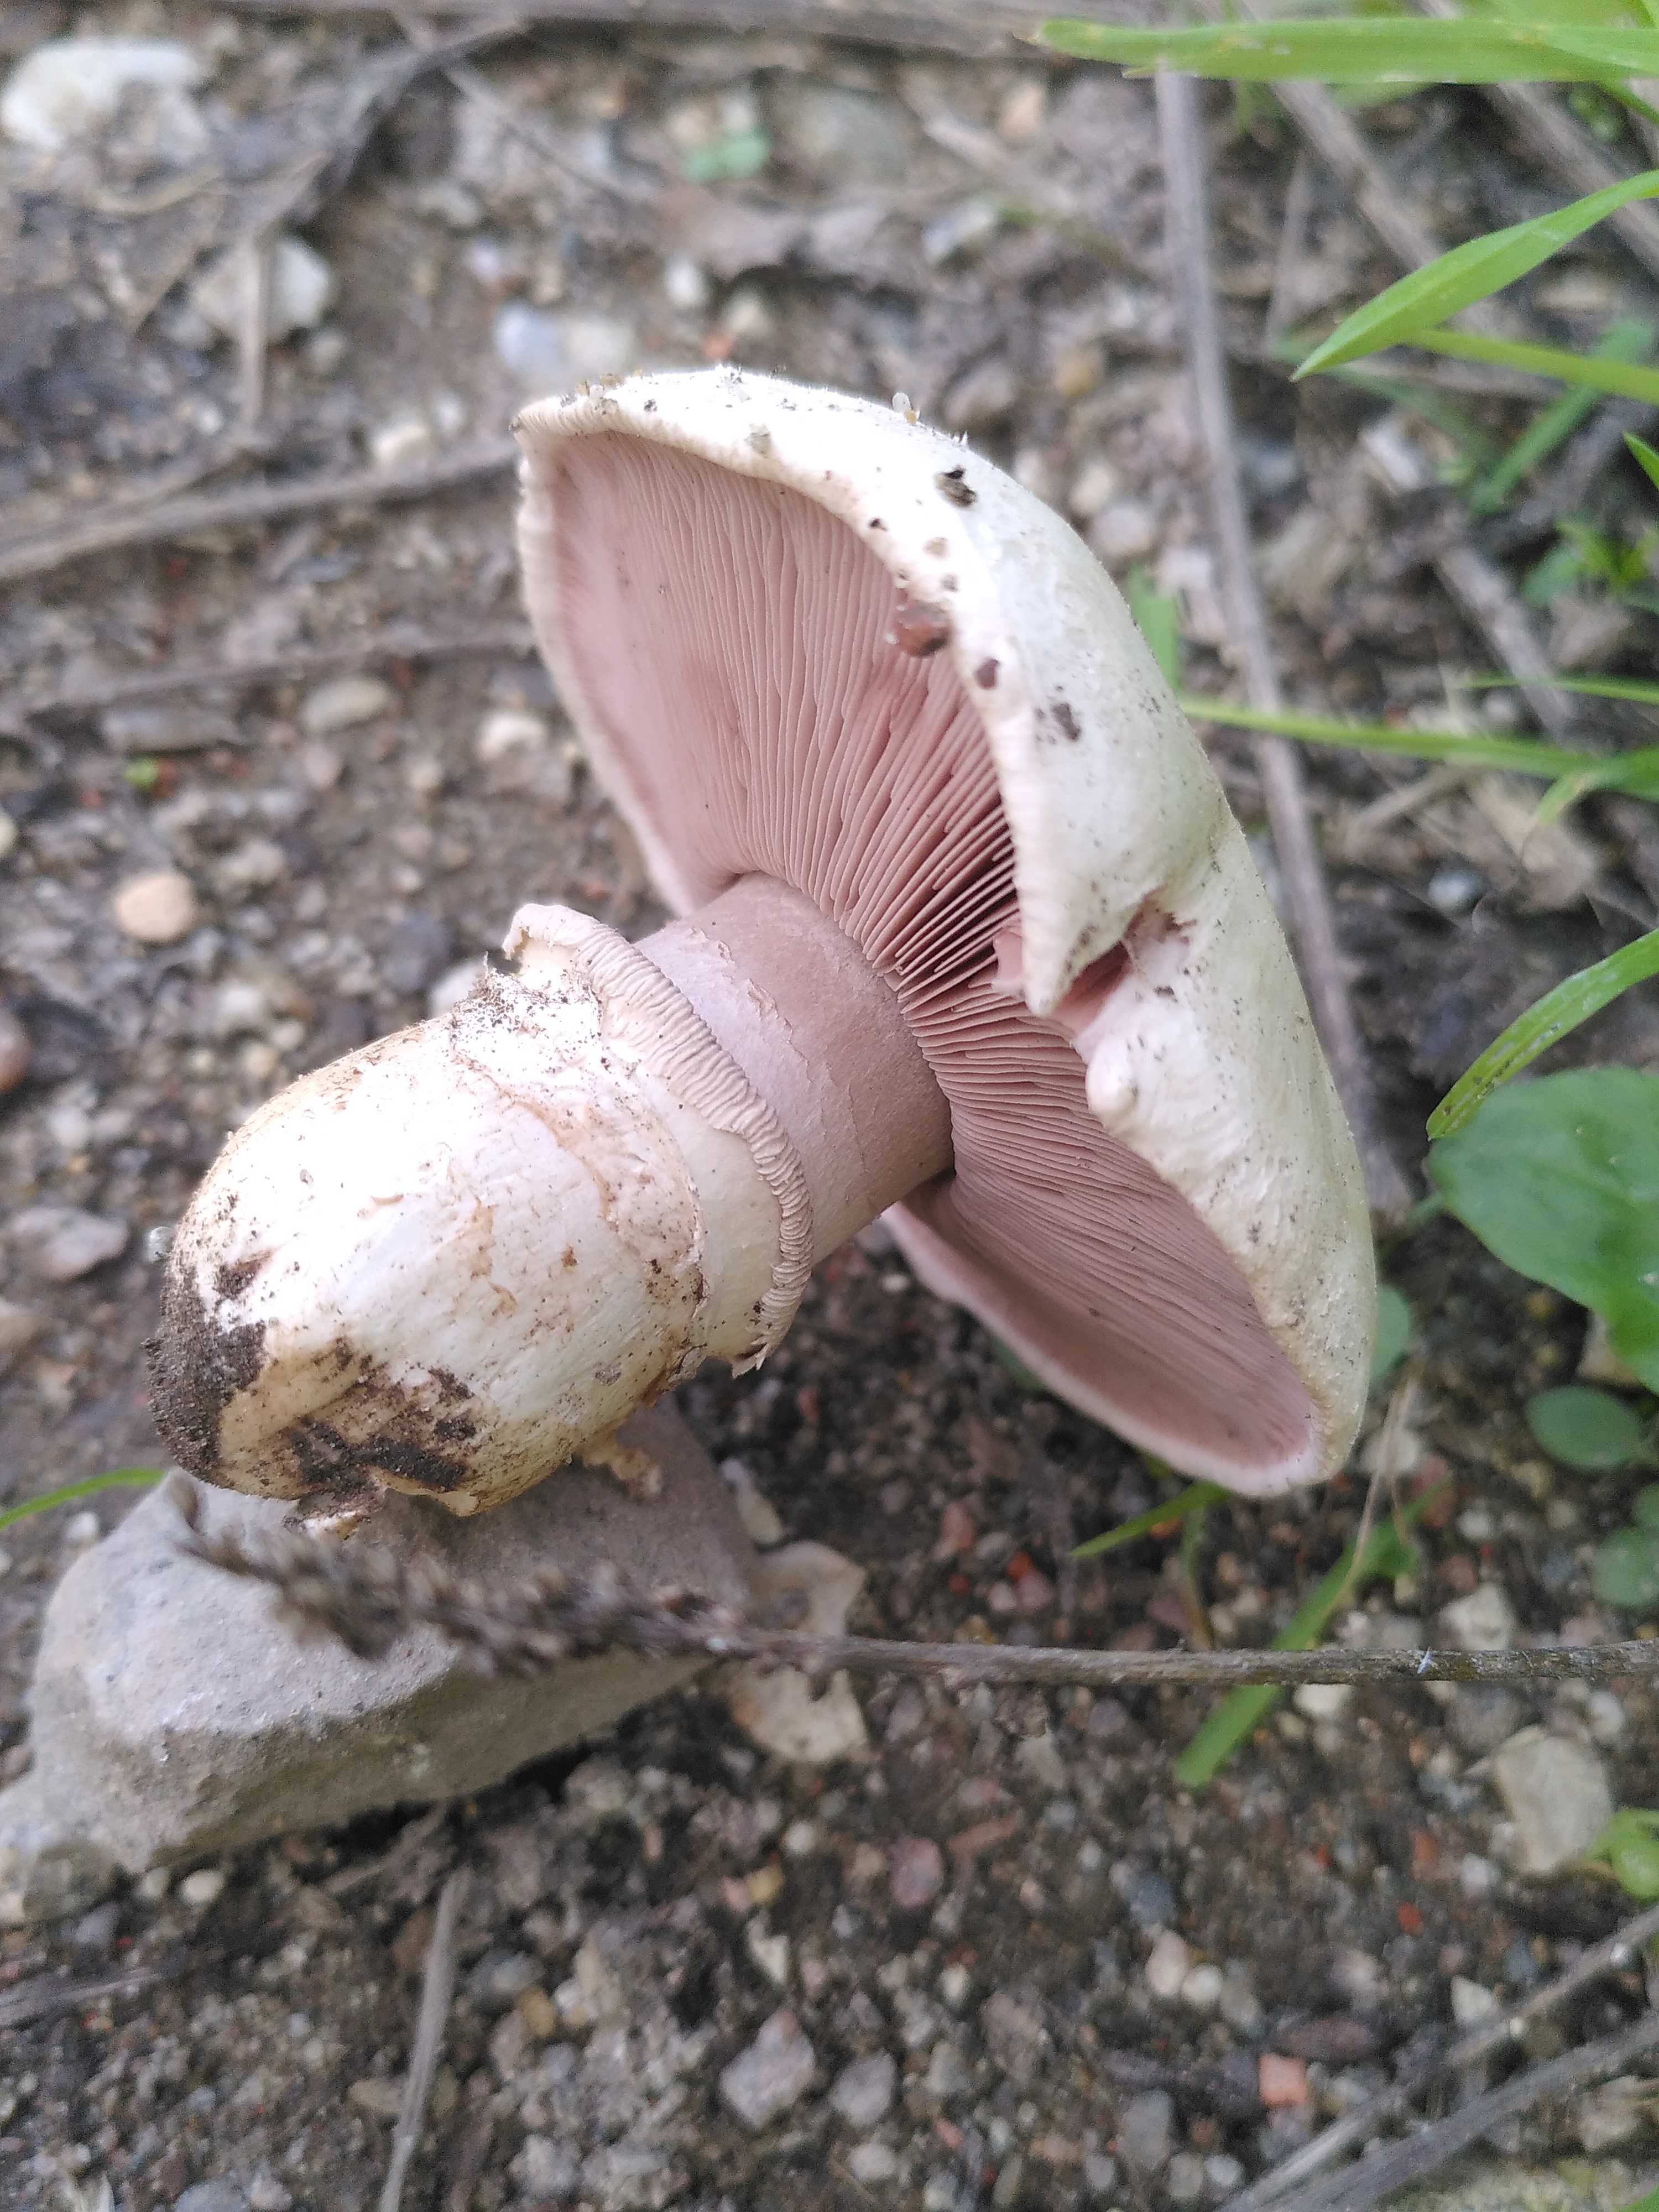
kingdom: Fungi
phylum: Basidiomycota
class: Agaricomycetes
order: Agaricales
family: Agaricaceae
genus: Agaricus
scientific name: Agaricus bitorquis
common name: vej-champignon
